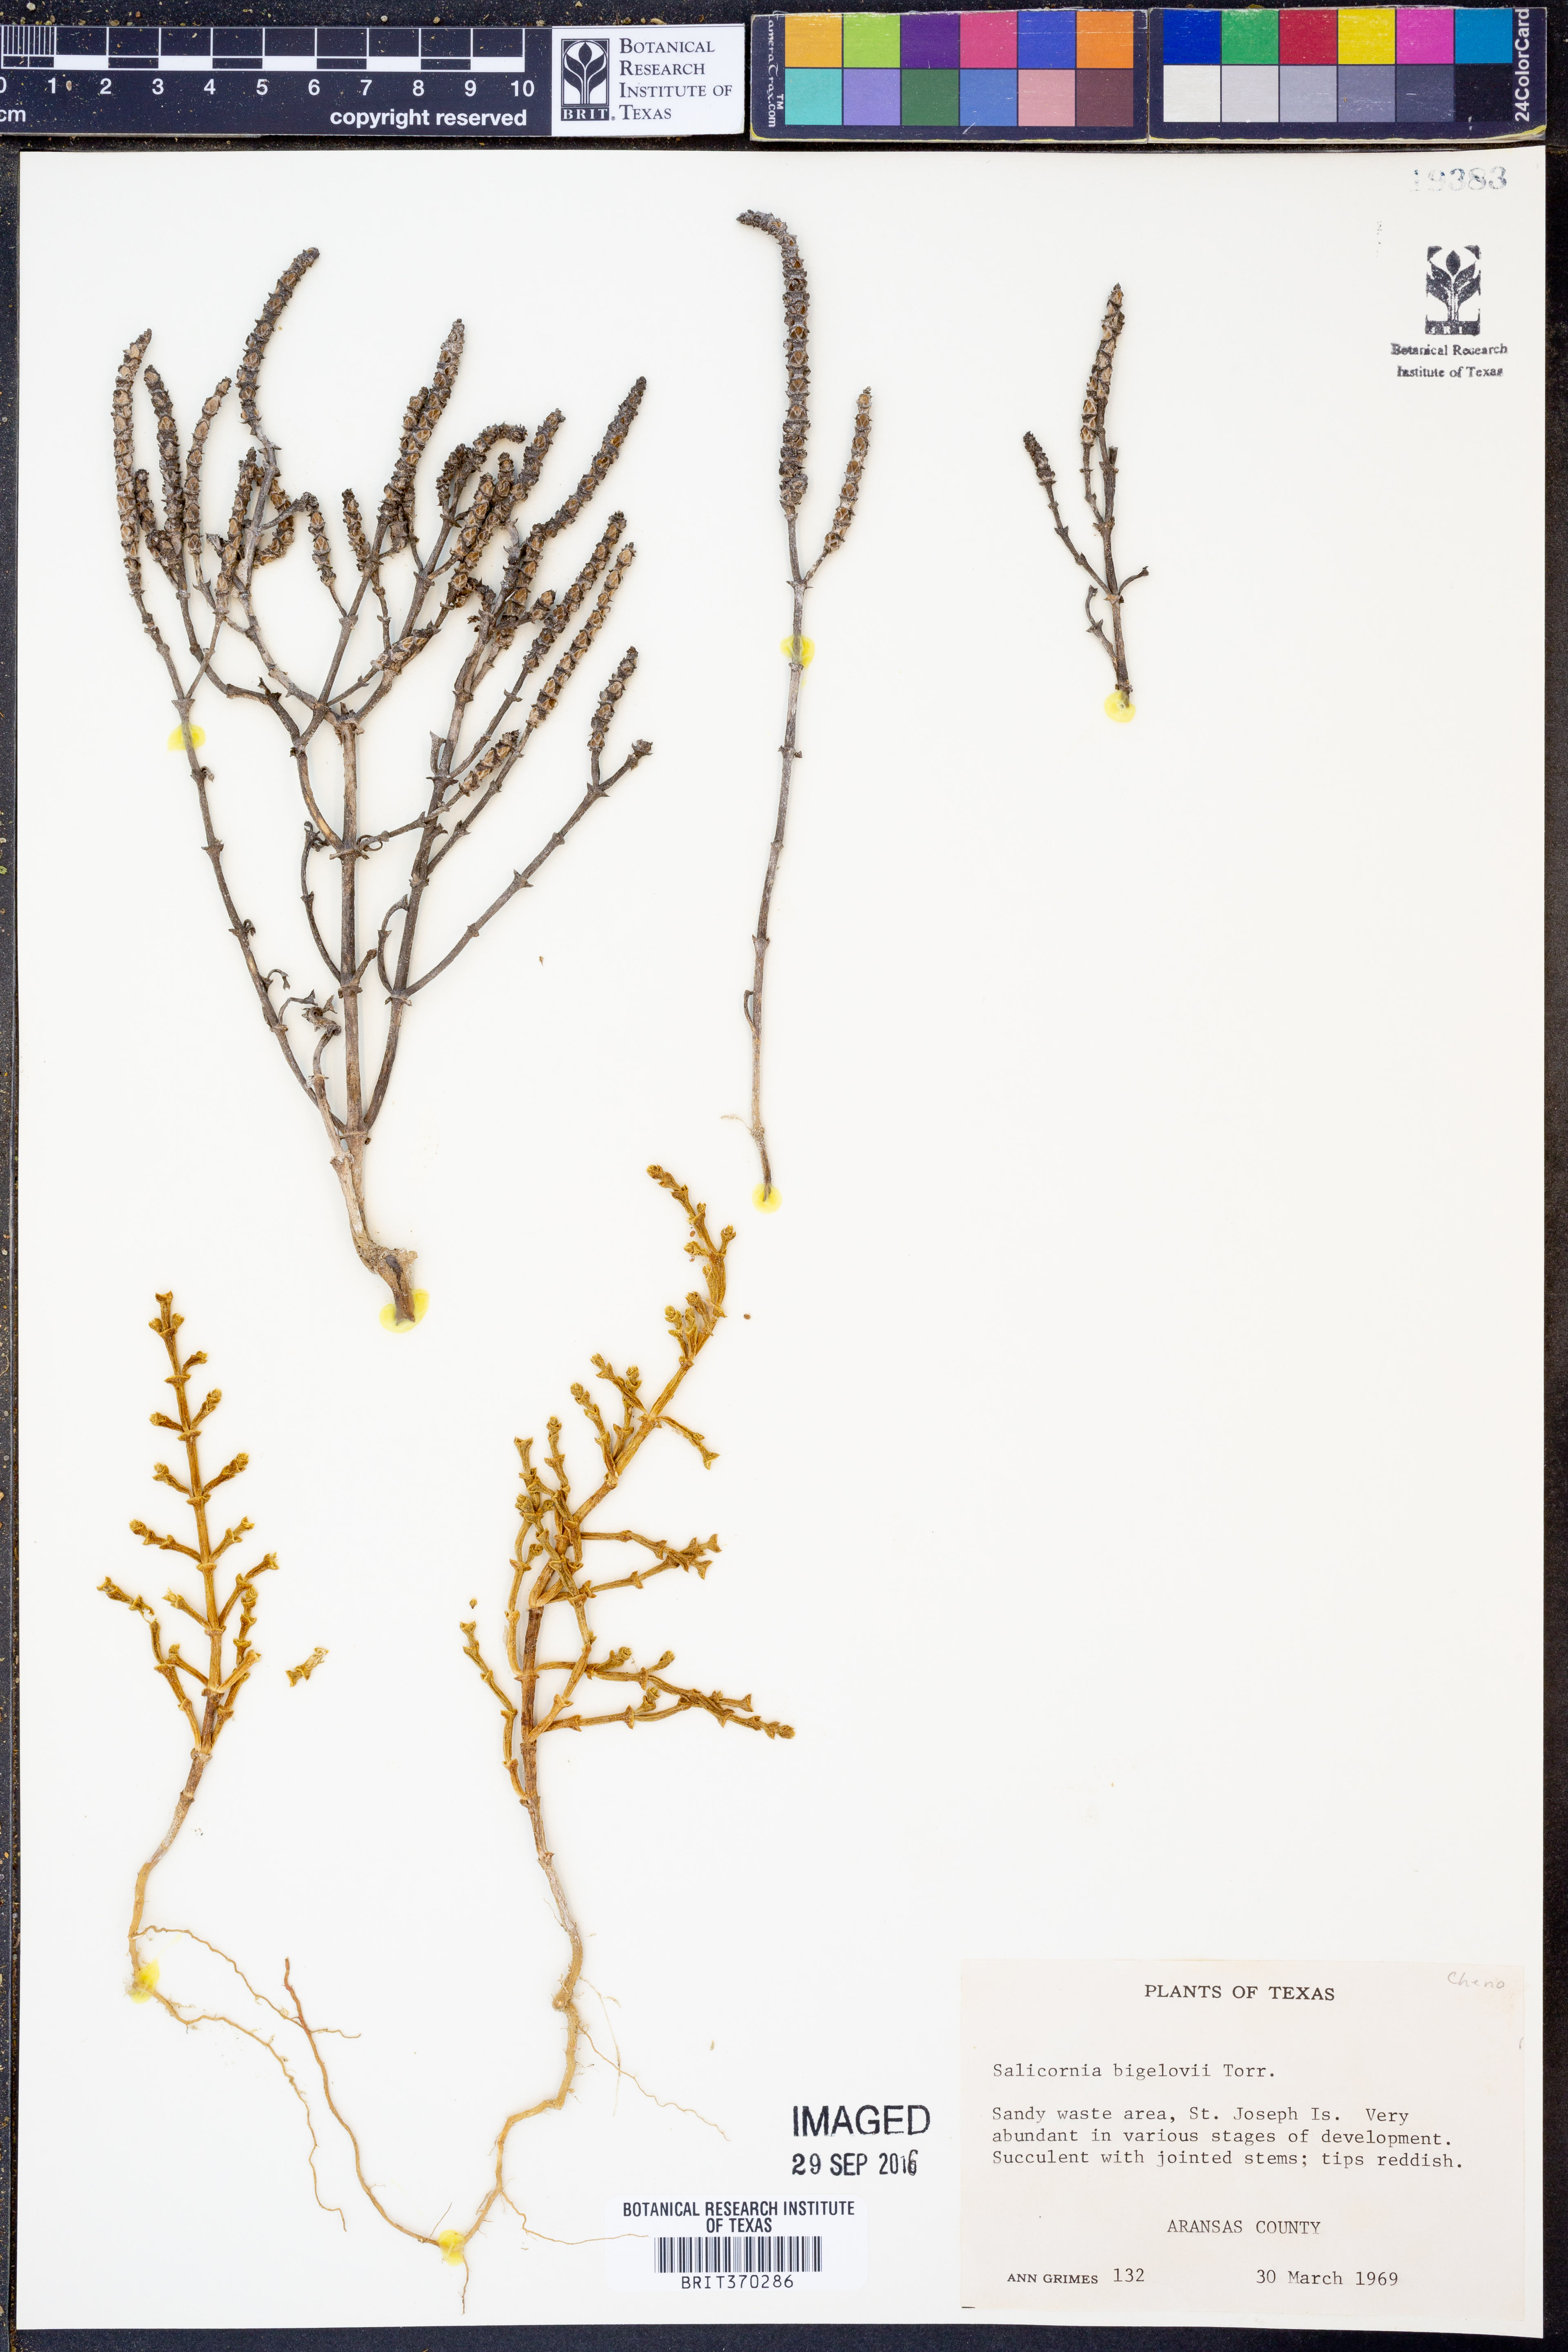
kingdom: Plantae
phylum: Tracheophyta
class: Magnoliopsida
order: Caryophyllales
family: Amaranthaceae
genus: Salicornia
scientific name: Salicornia bigelovii
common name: Dwarf glasswort
